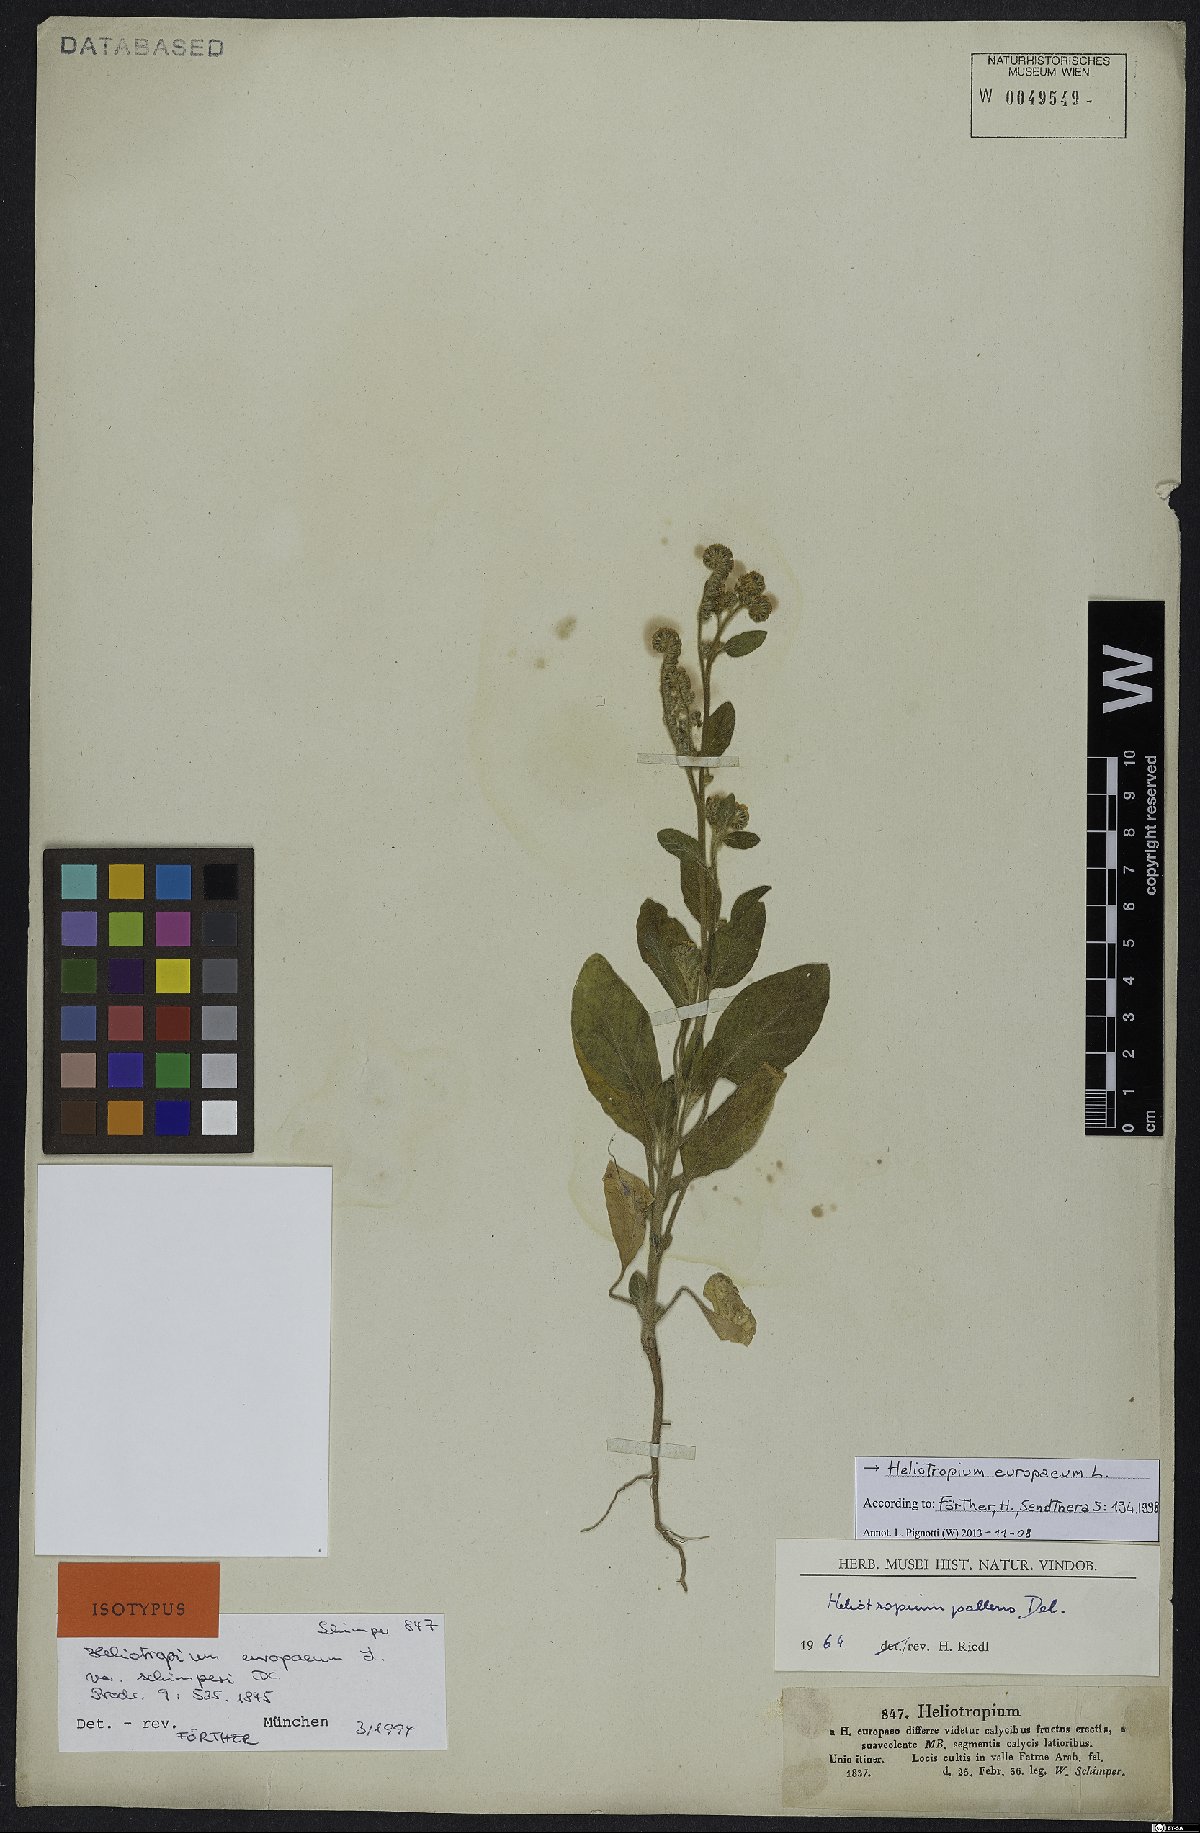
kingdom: Plantae
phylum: Tracheophyta
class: Magnoliopsida
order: Boraginales
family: Heliotropiaceae
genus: Heliotropium
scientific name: Heliotropium europaeum
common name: European heliotrope
